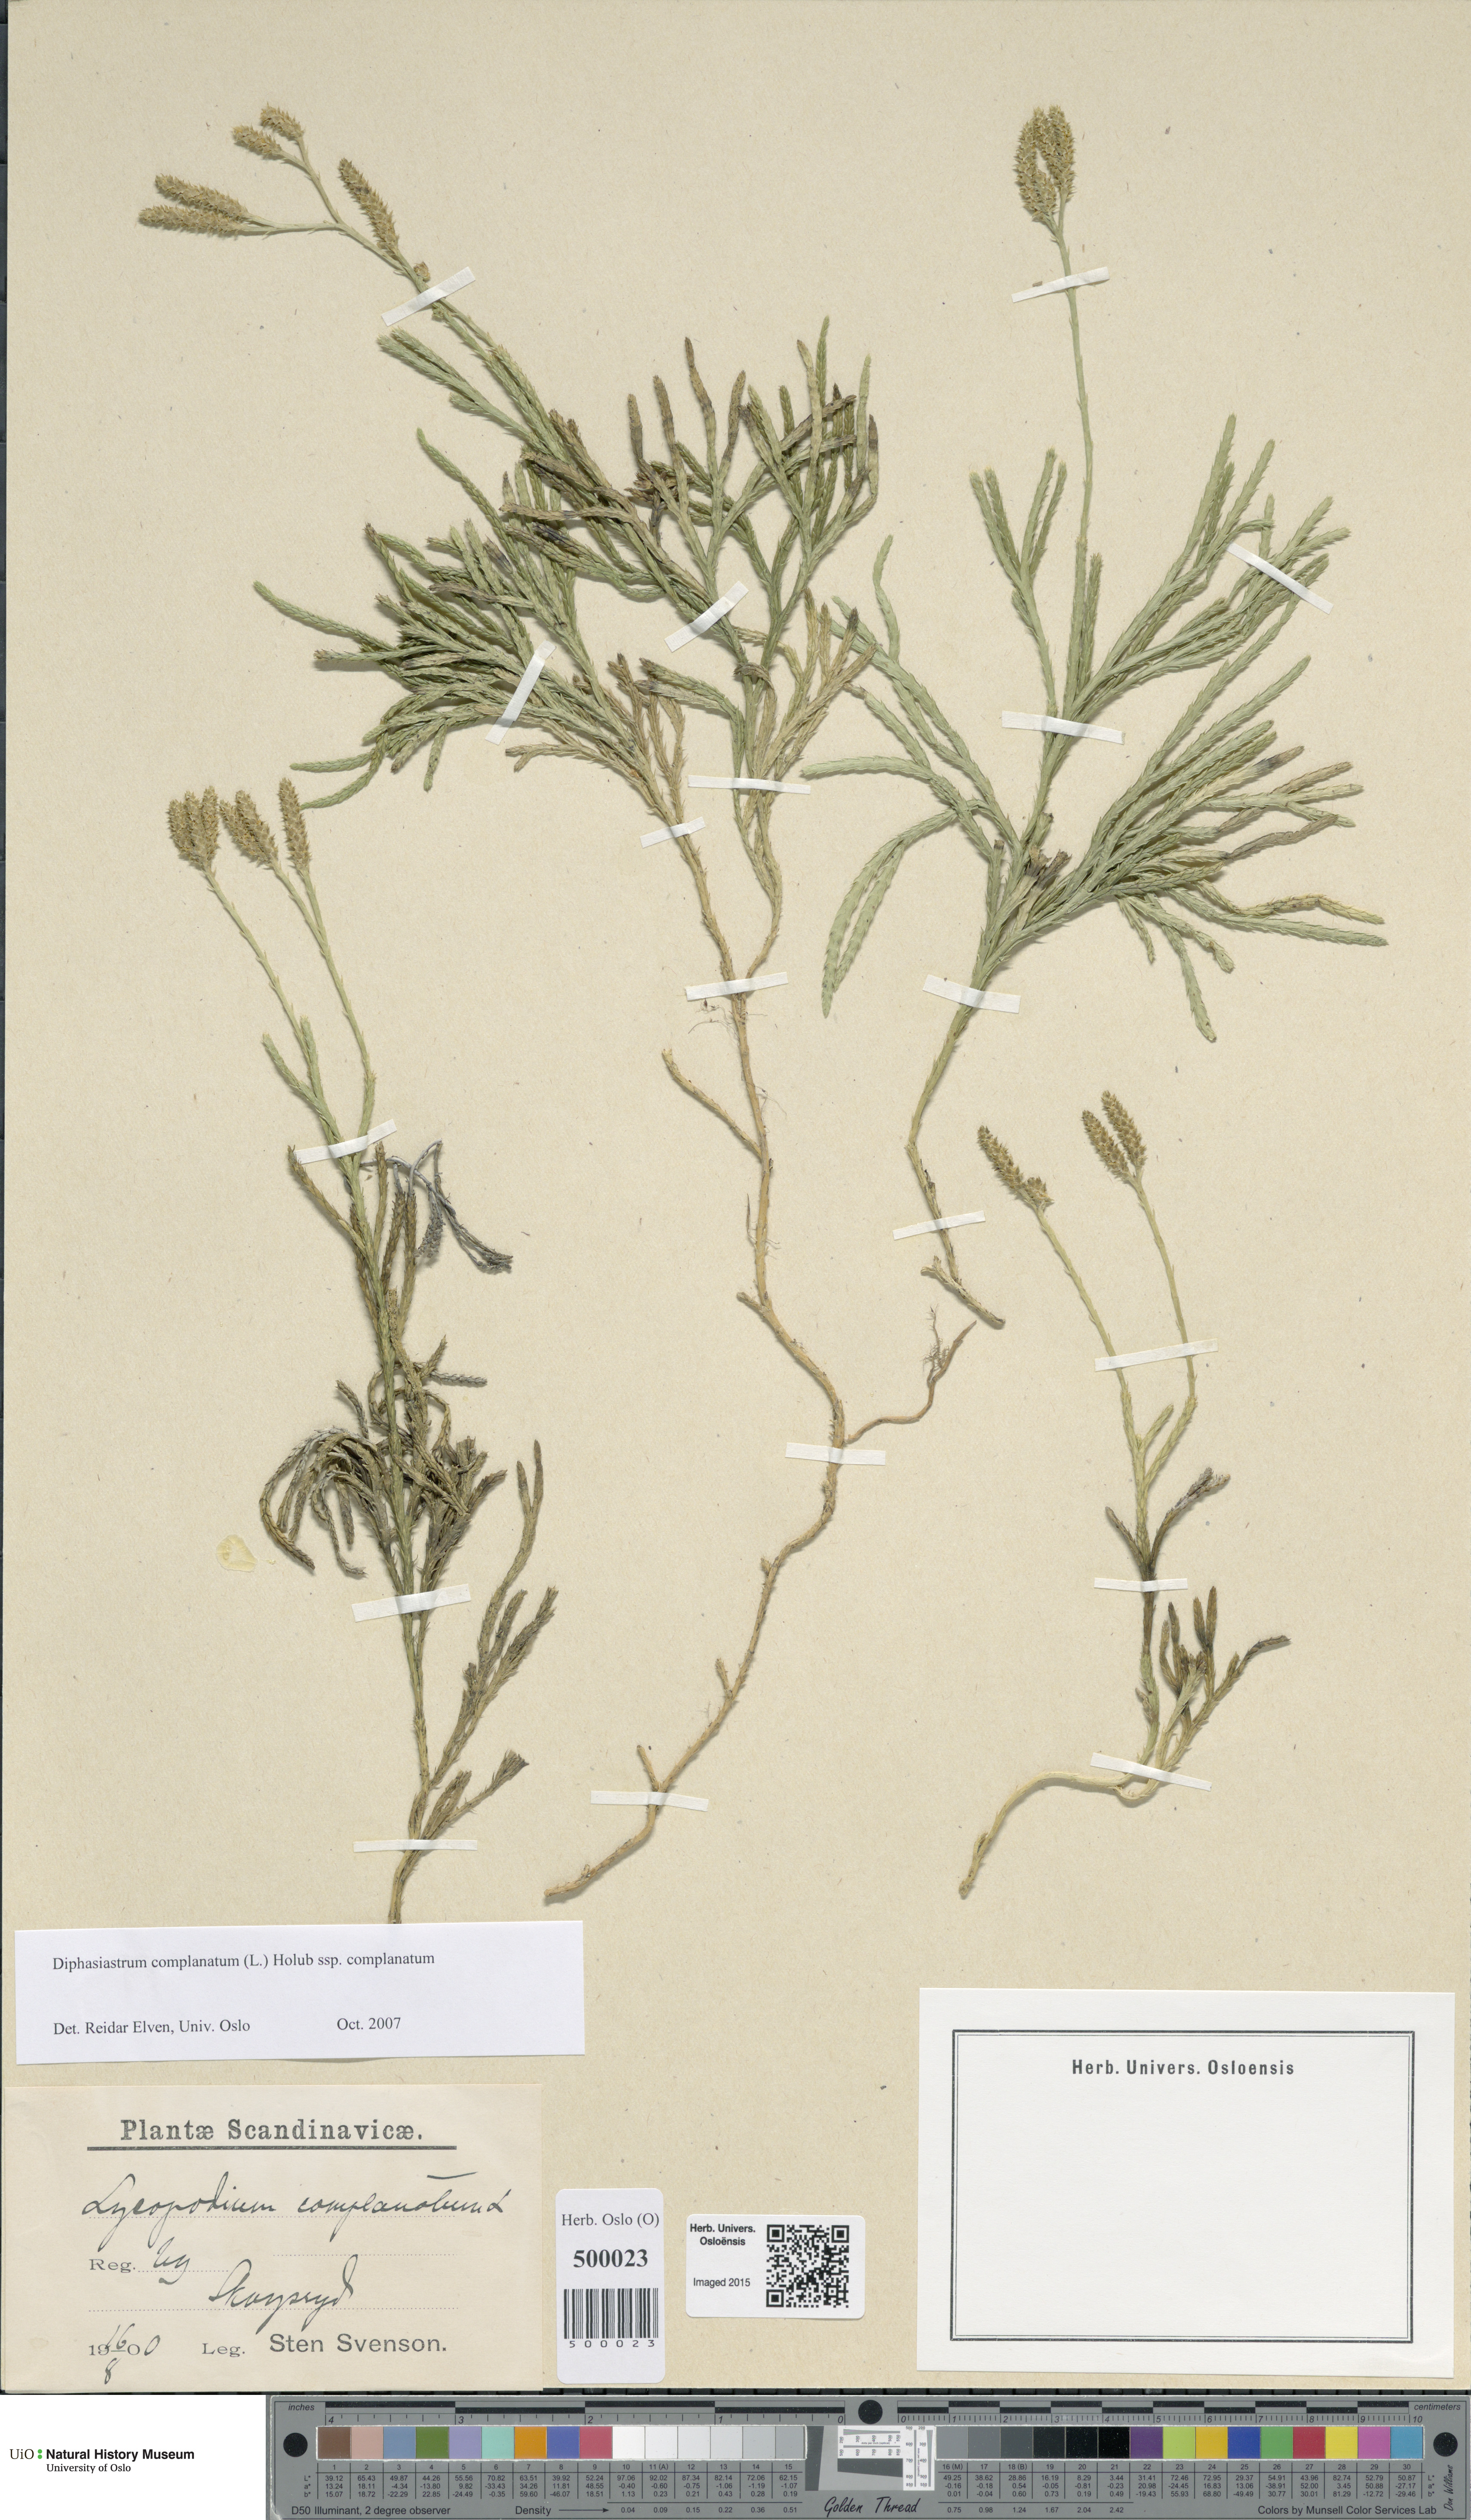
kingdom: Plantae
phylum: Tracheophyta
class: Lycopodiopsida
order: Lycopodiales
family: Lycopodiaceae
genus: Diphasiastrum
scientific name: Diphasiastrum complanatum
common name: Northern running-pine
